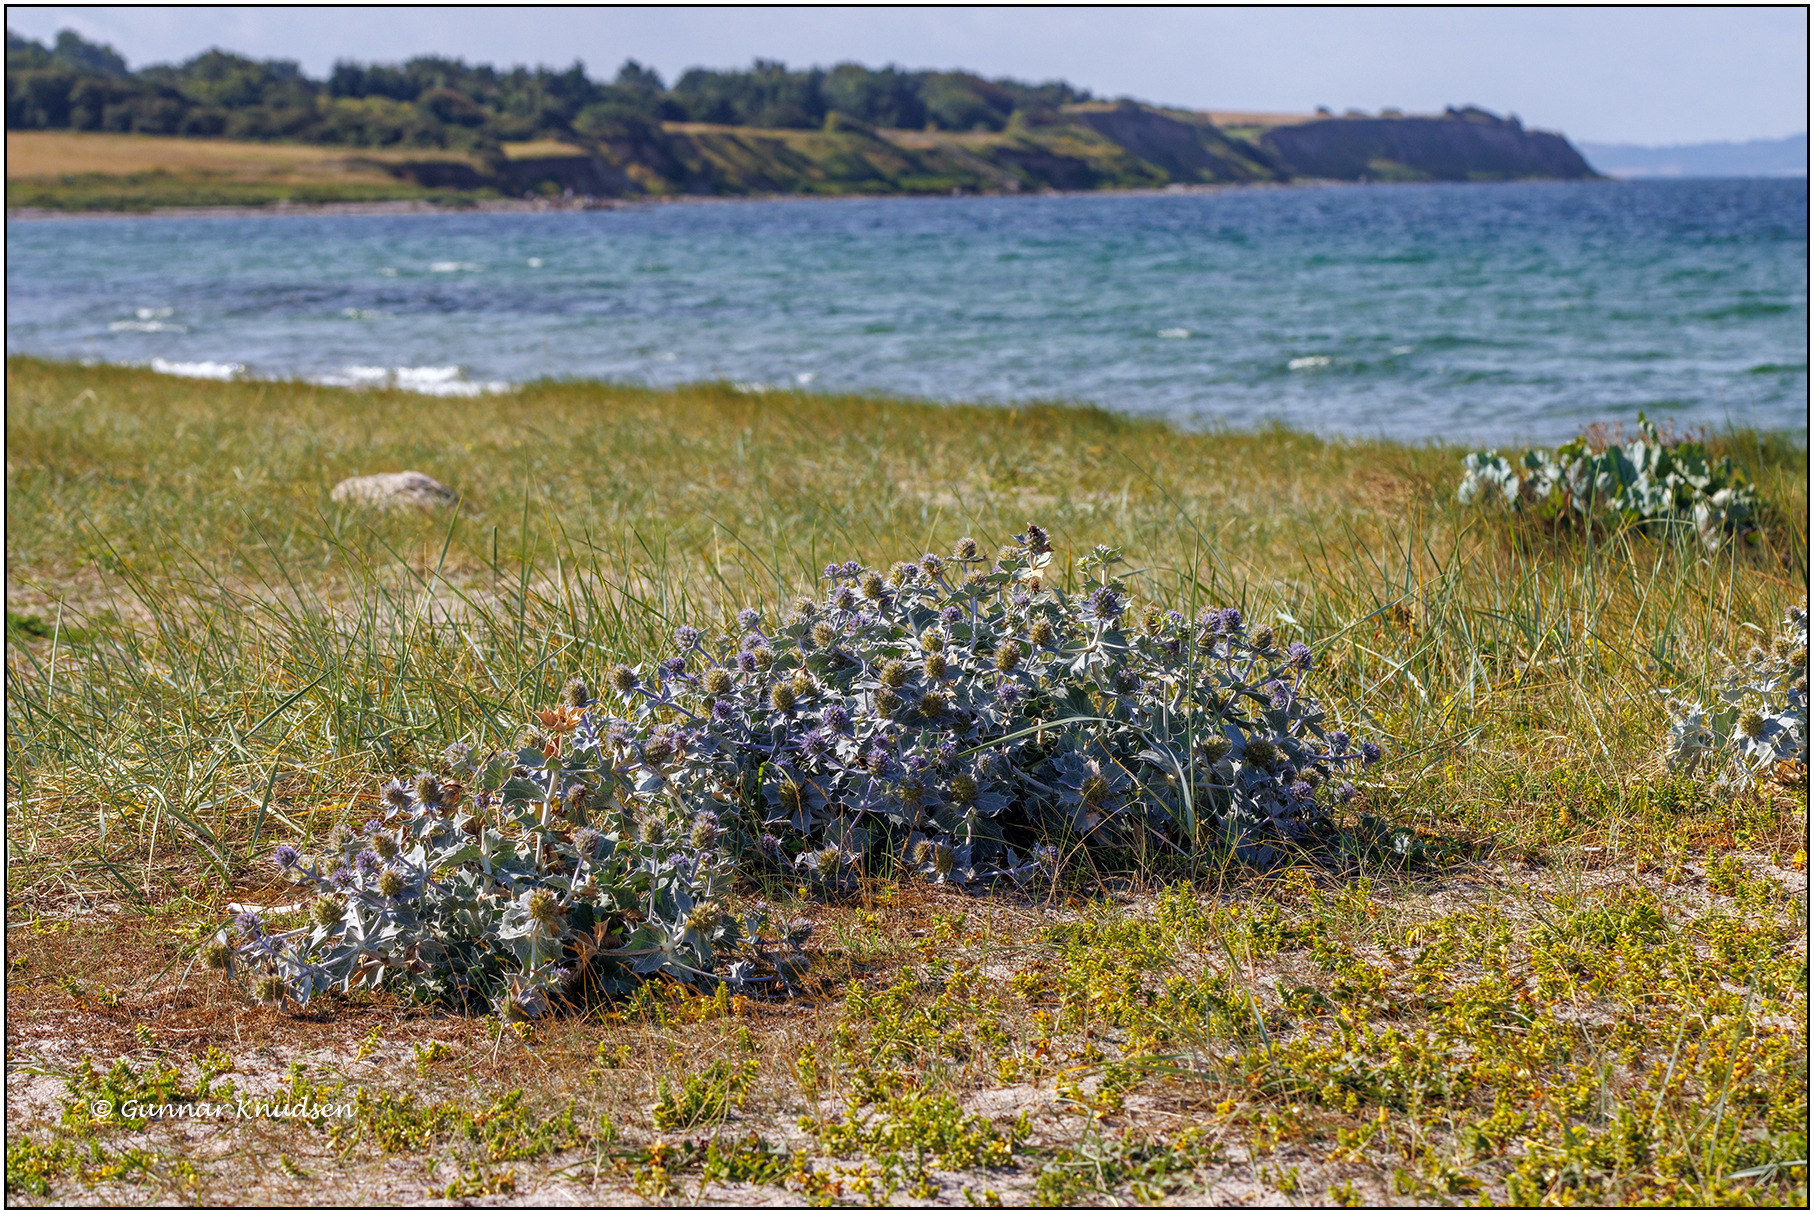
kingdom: Plantae
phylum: Tracheophyta
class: Magnoliopsida
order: Apiales
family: Apiaceae
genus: Eryngium
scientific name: Eryngium maritimum
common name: Strand-mandstro
